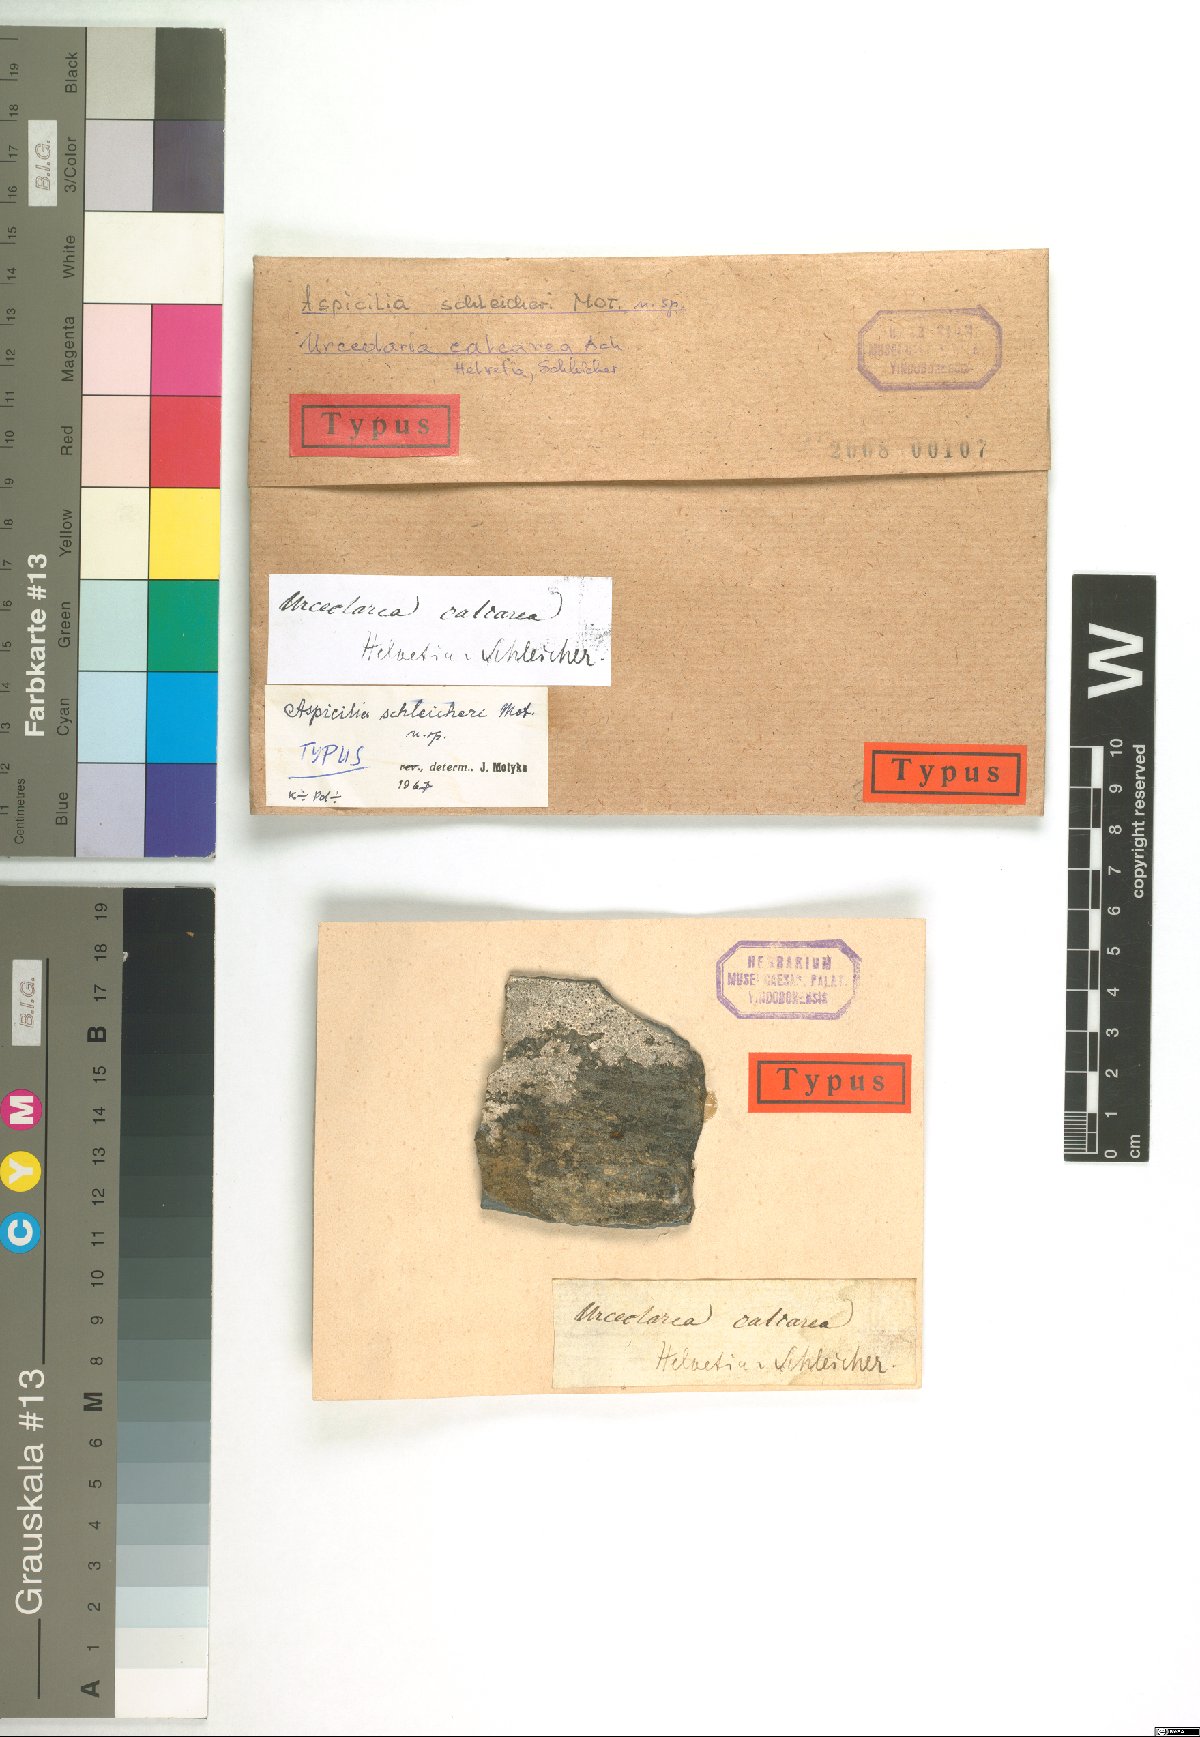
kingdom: Fungi
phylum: Ascomycota
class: Lecanoromycetes
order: Hymeneliales
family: Hymeneliaceae
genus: Aspicilia
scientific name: Aspicilia
